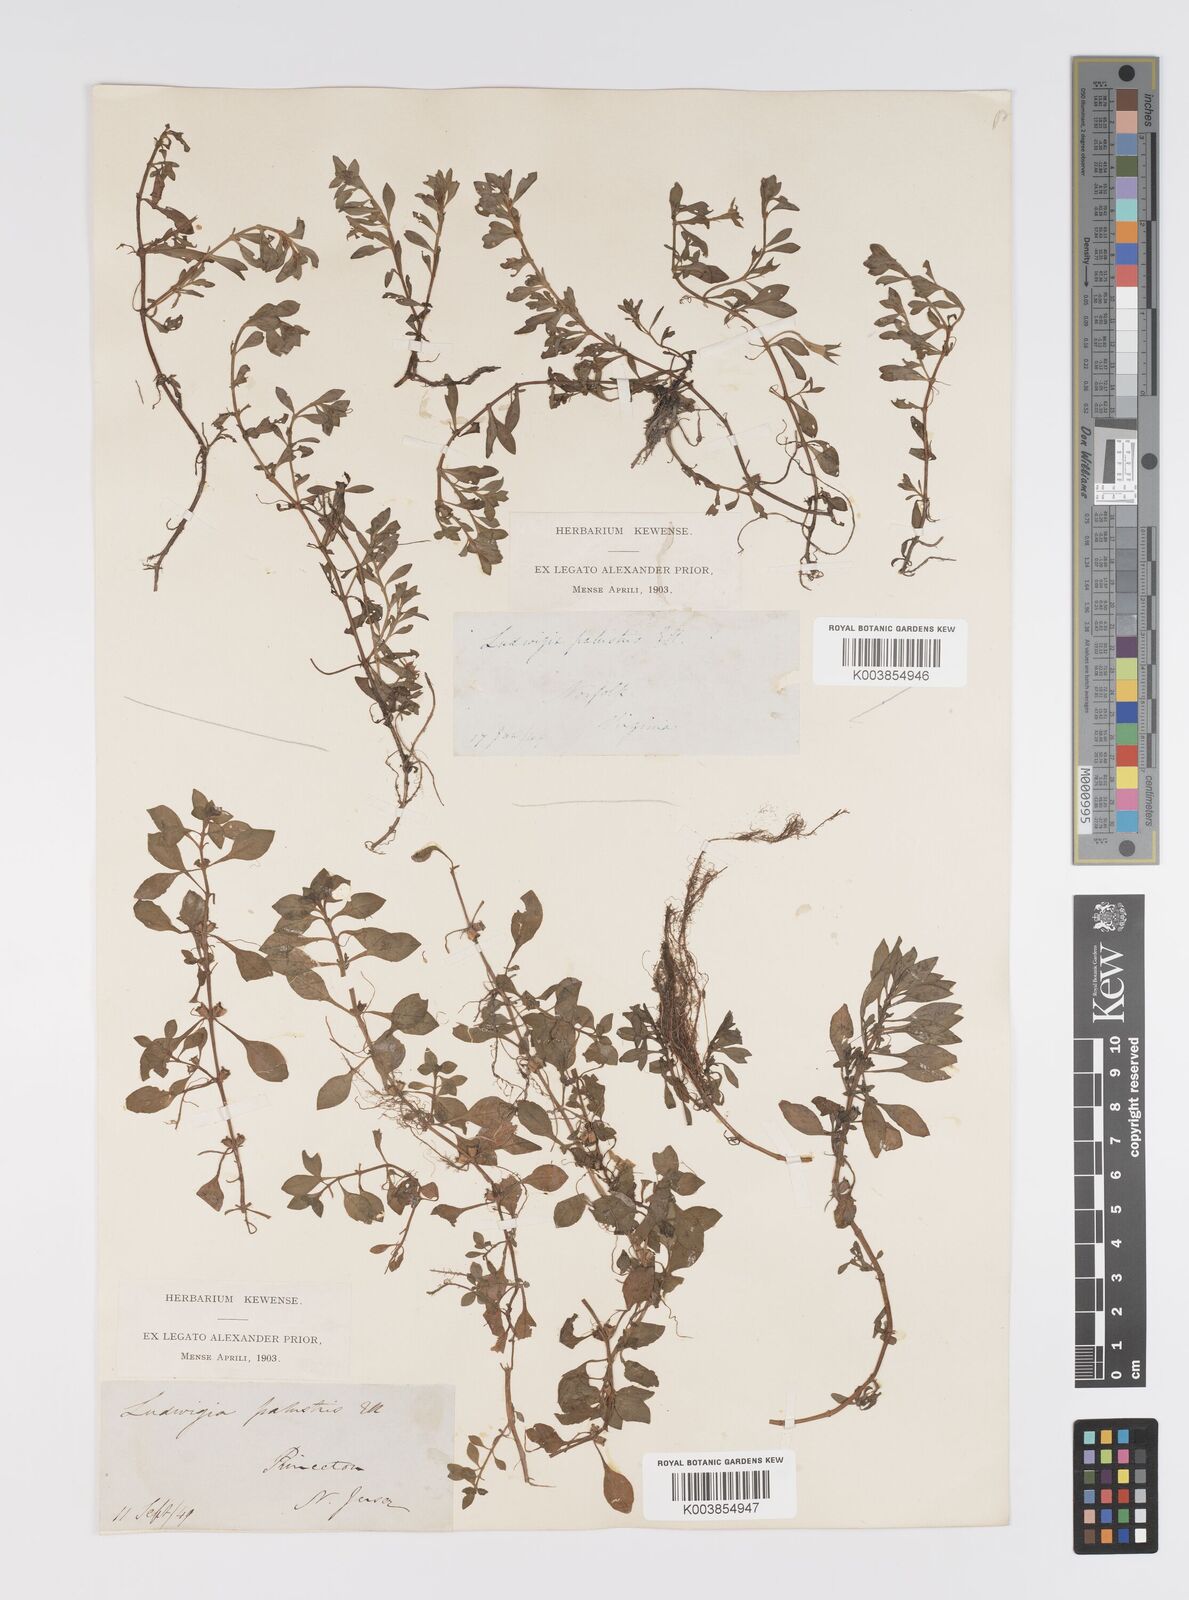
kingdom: Plantae
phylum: Tracheophyta
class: Magnoliopsida
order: Myrtales
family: Onagraceae
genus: Ludwigia
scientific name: Ludwigia palustris
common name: Hampshire-purslane
